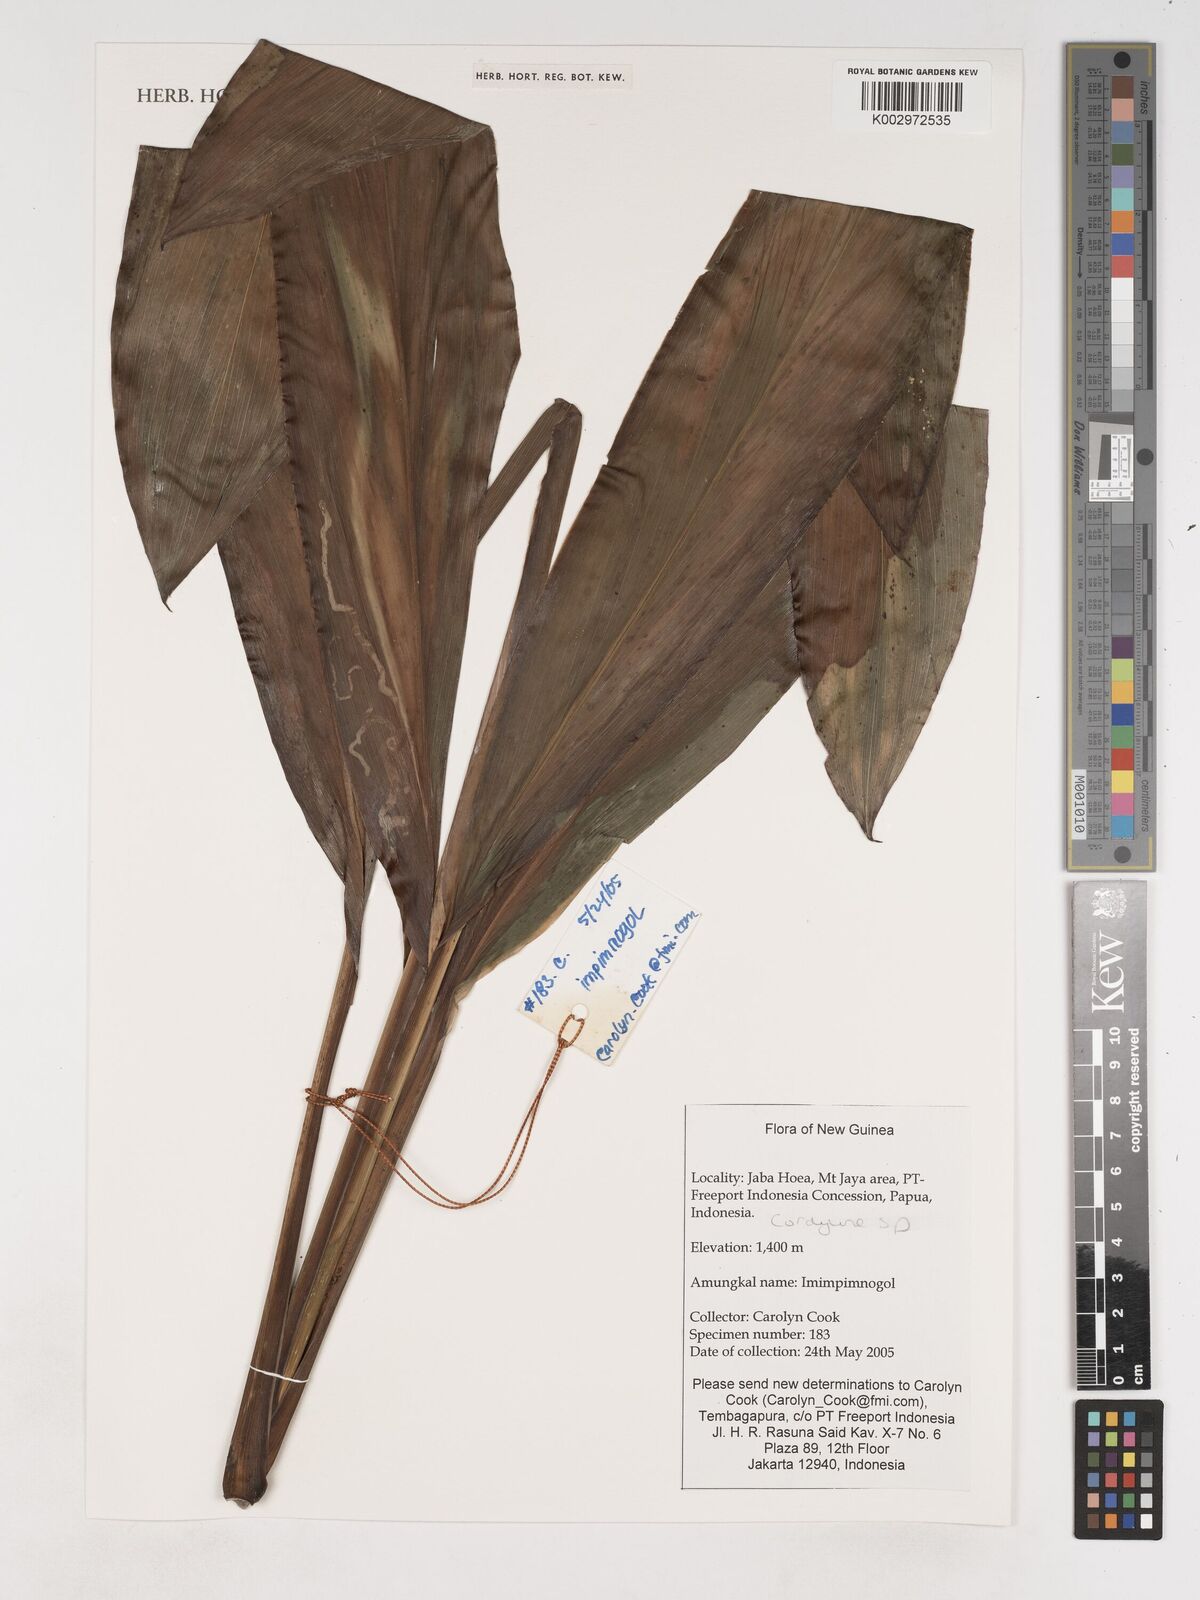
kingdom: Plantae
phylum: Tracheophyta
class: Liliopsida
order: Asparagales
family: Asparagaceae
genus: Cordyline
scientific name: Cordyline
